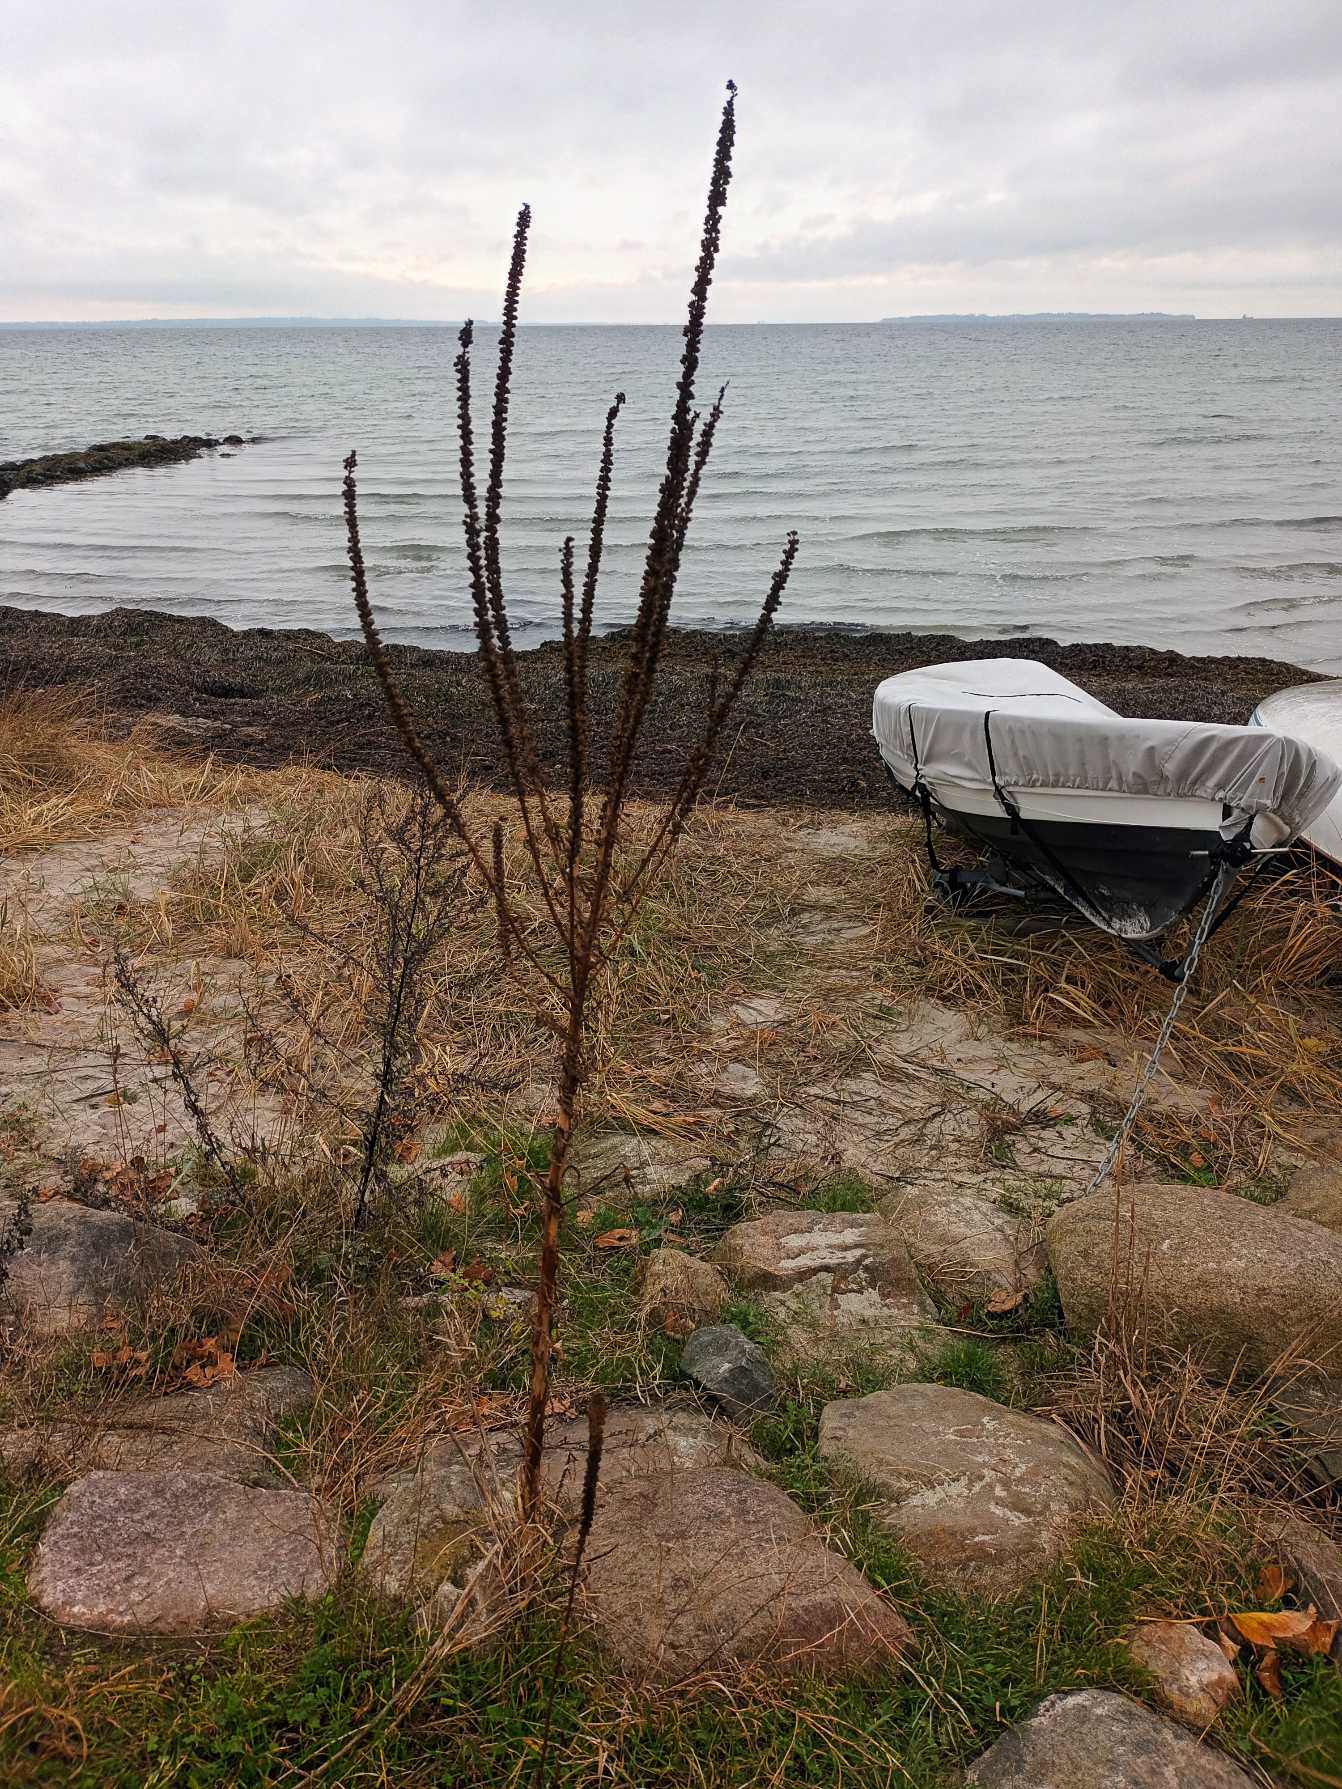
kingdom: Plantae
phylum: Tracheophyta
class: Magnoliopsida
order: Brassicales
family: Resedaceae
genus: Reseda
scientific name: Reseda luteola
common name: Farve-reseda
